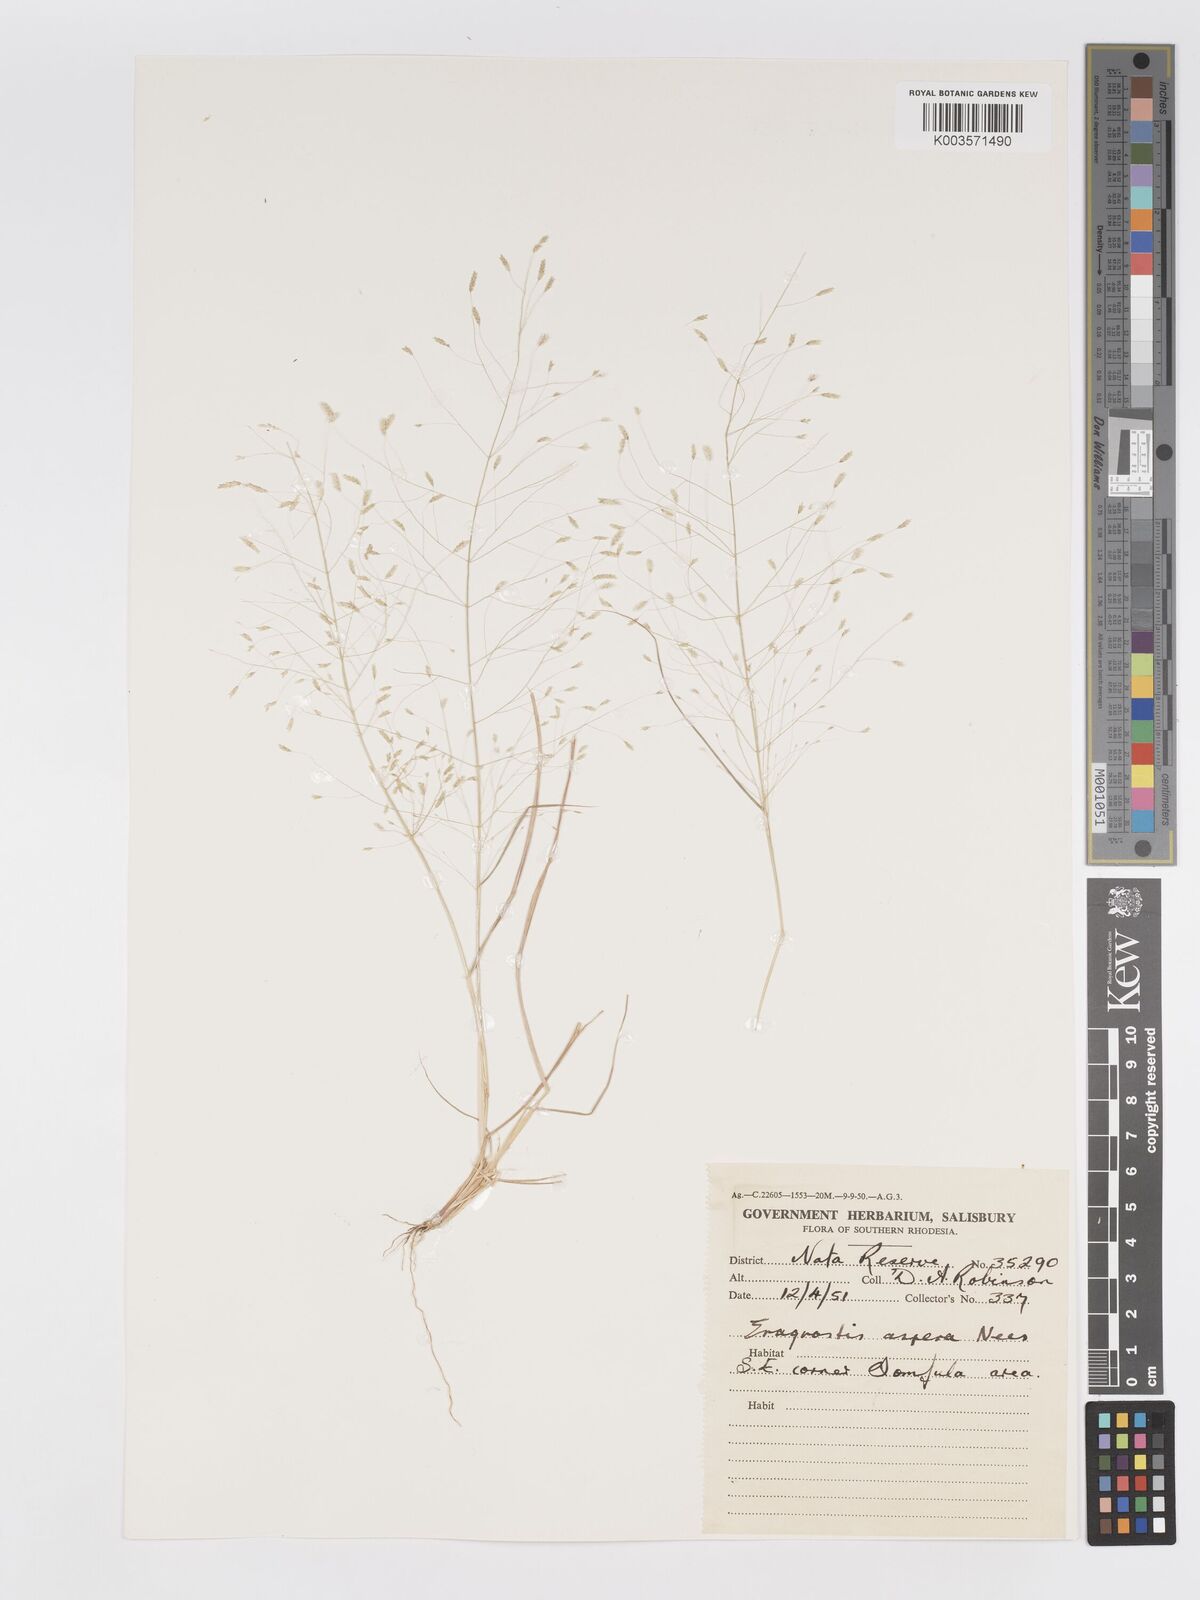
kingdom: Plantae
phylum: Tracheophyta
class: Liliopsida
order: Poales
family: Poaceae
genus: Eragrostis
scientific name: Eragrostis aspera
